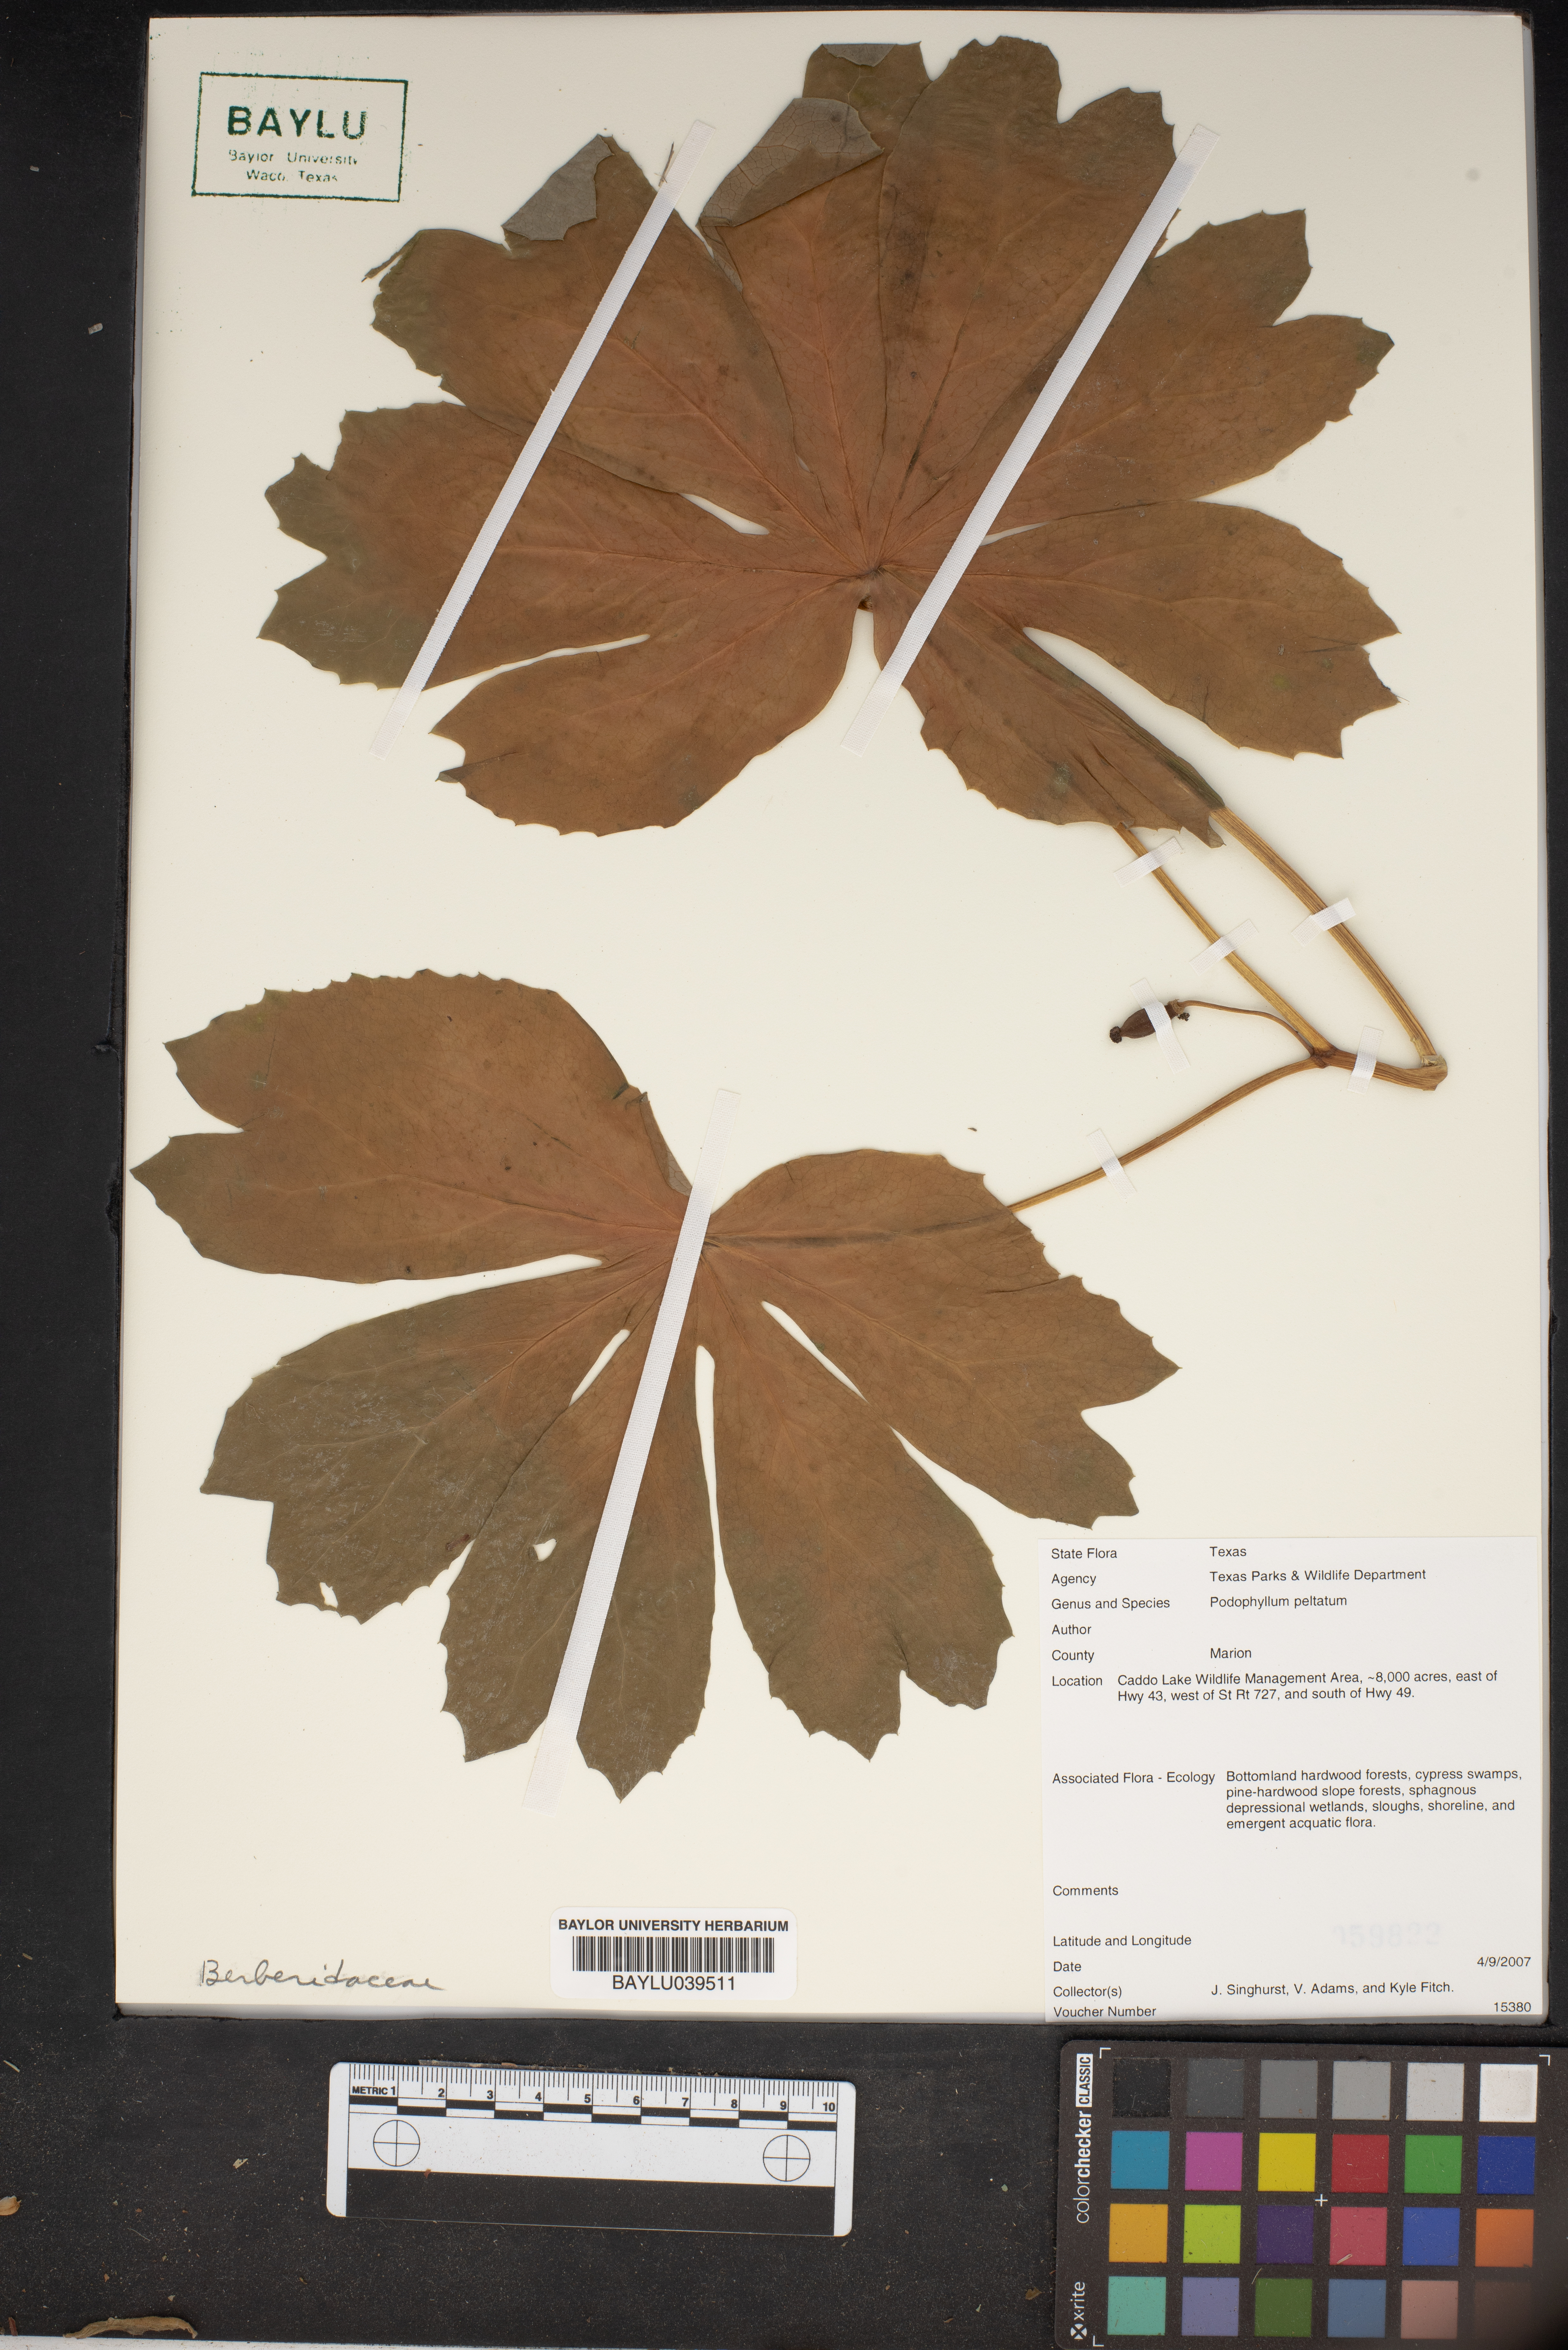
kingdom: Plantae
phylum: Tracheophyta
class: Magnoliopsida
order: Ranunculales
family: Berberidaceae
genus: Podophyllum
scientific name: Podophyllum peltatum
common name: Wild mandrake
